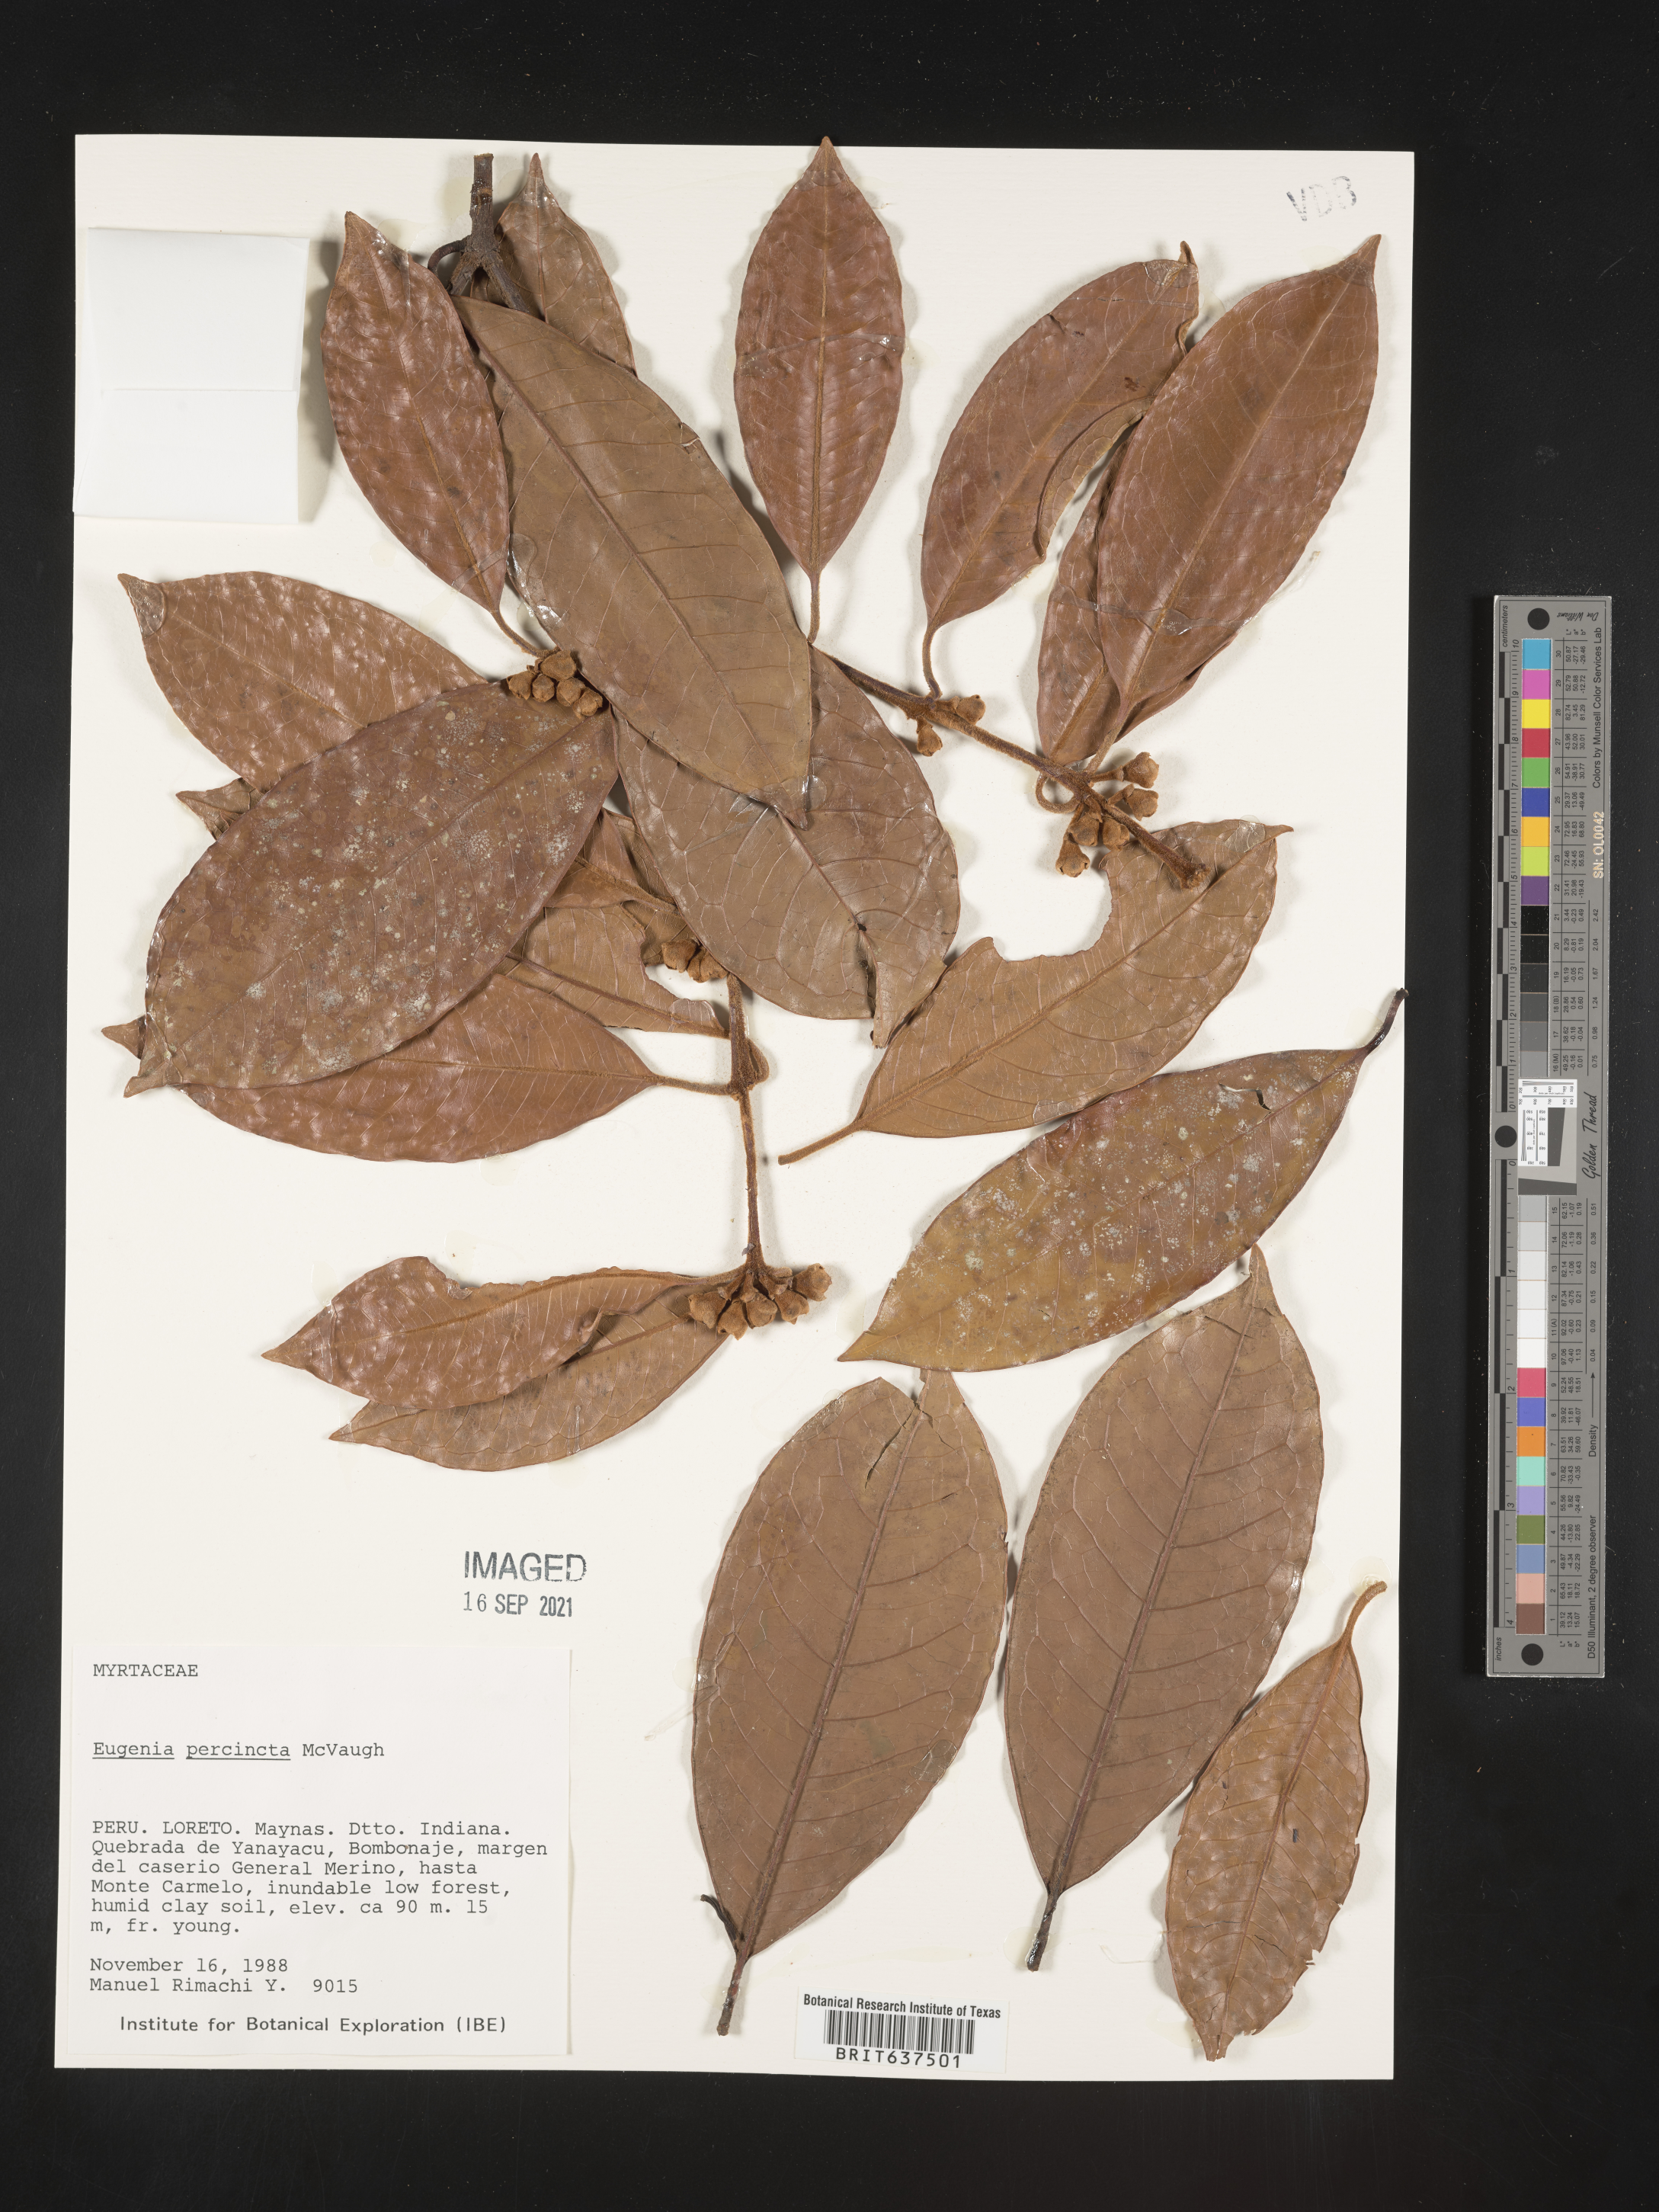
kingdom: Plantae
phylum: Tracheophyta
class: Magnoliopsida
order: Myrtales
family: Myrtaceae
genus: Eugenia
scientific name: Eugenia
